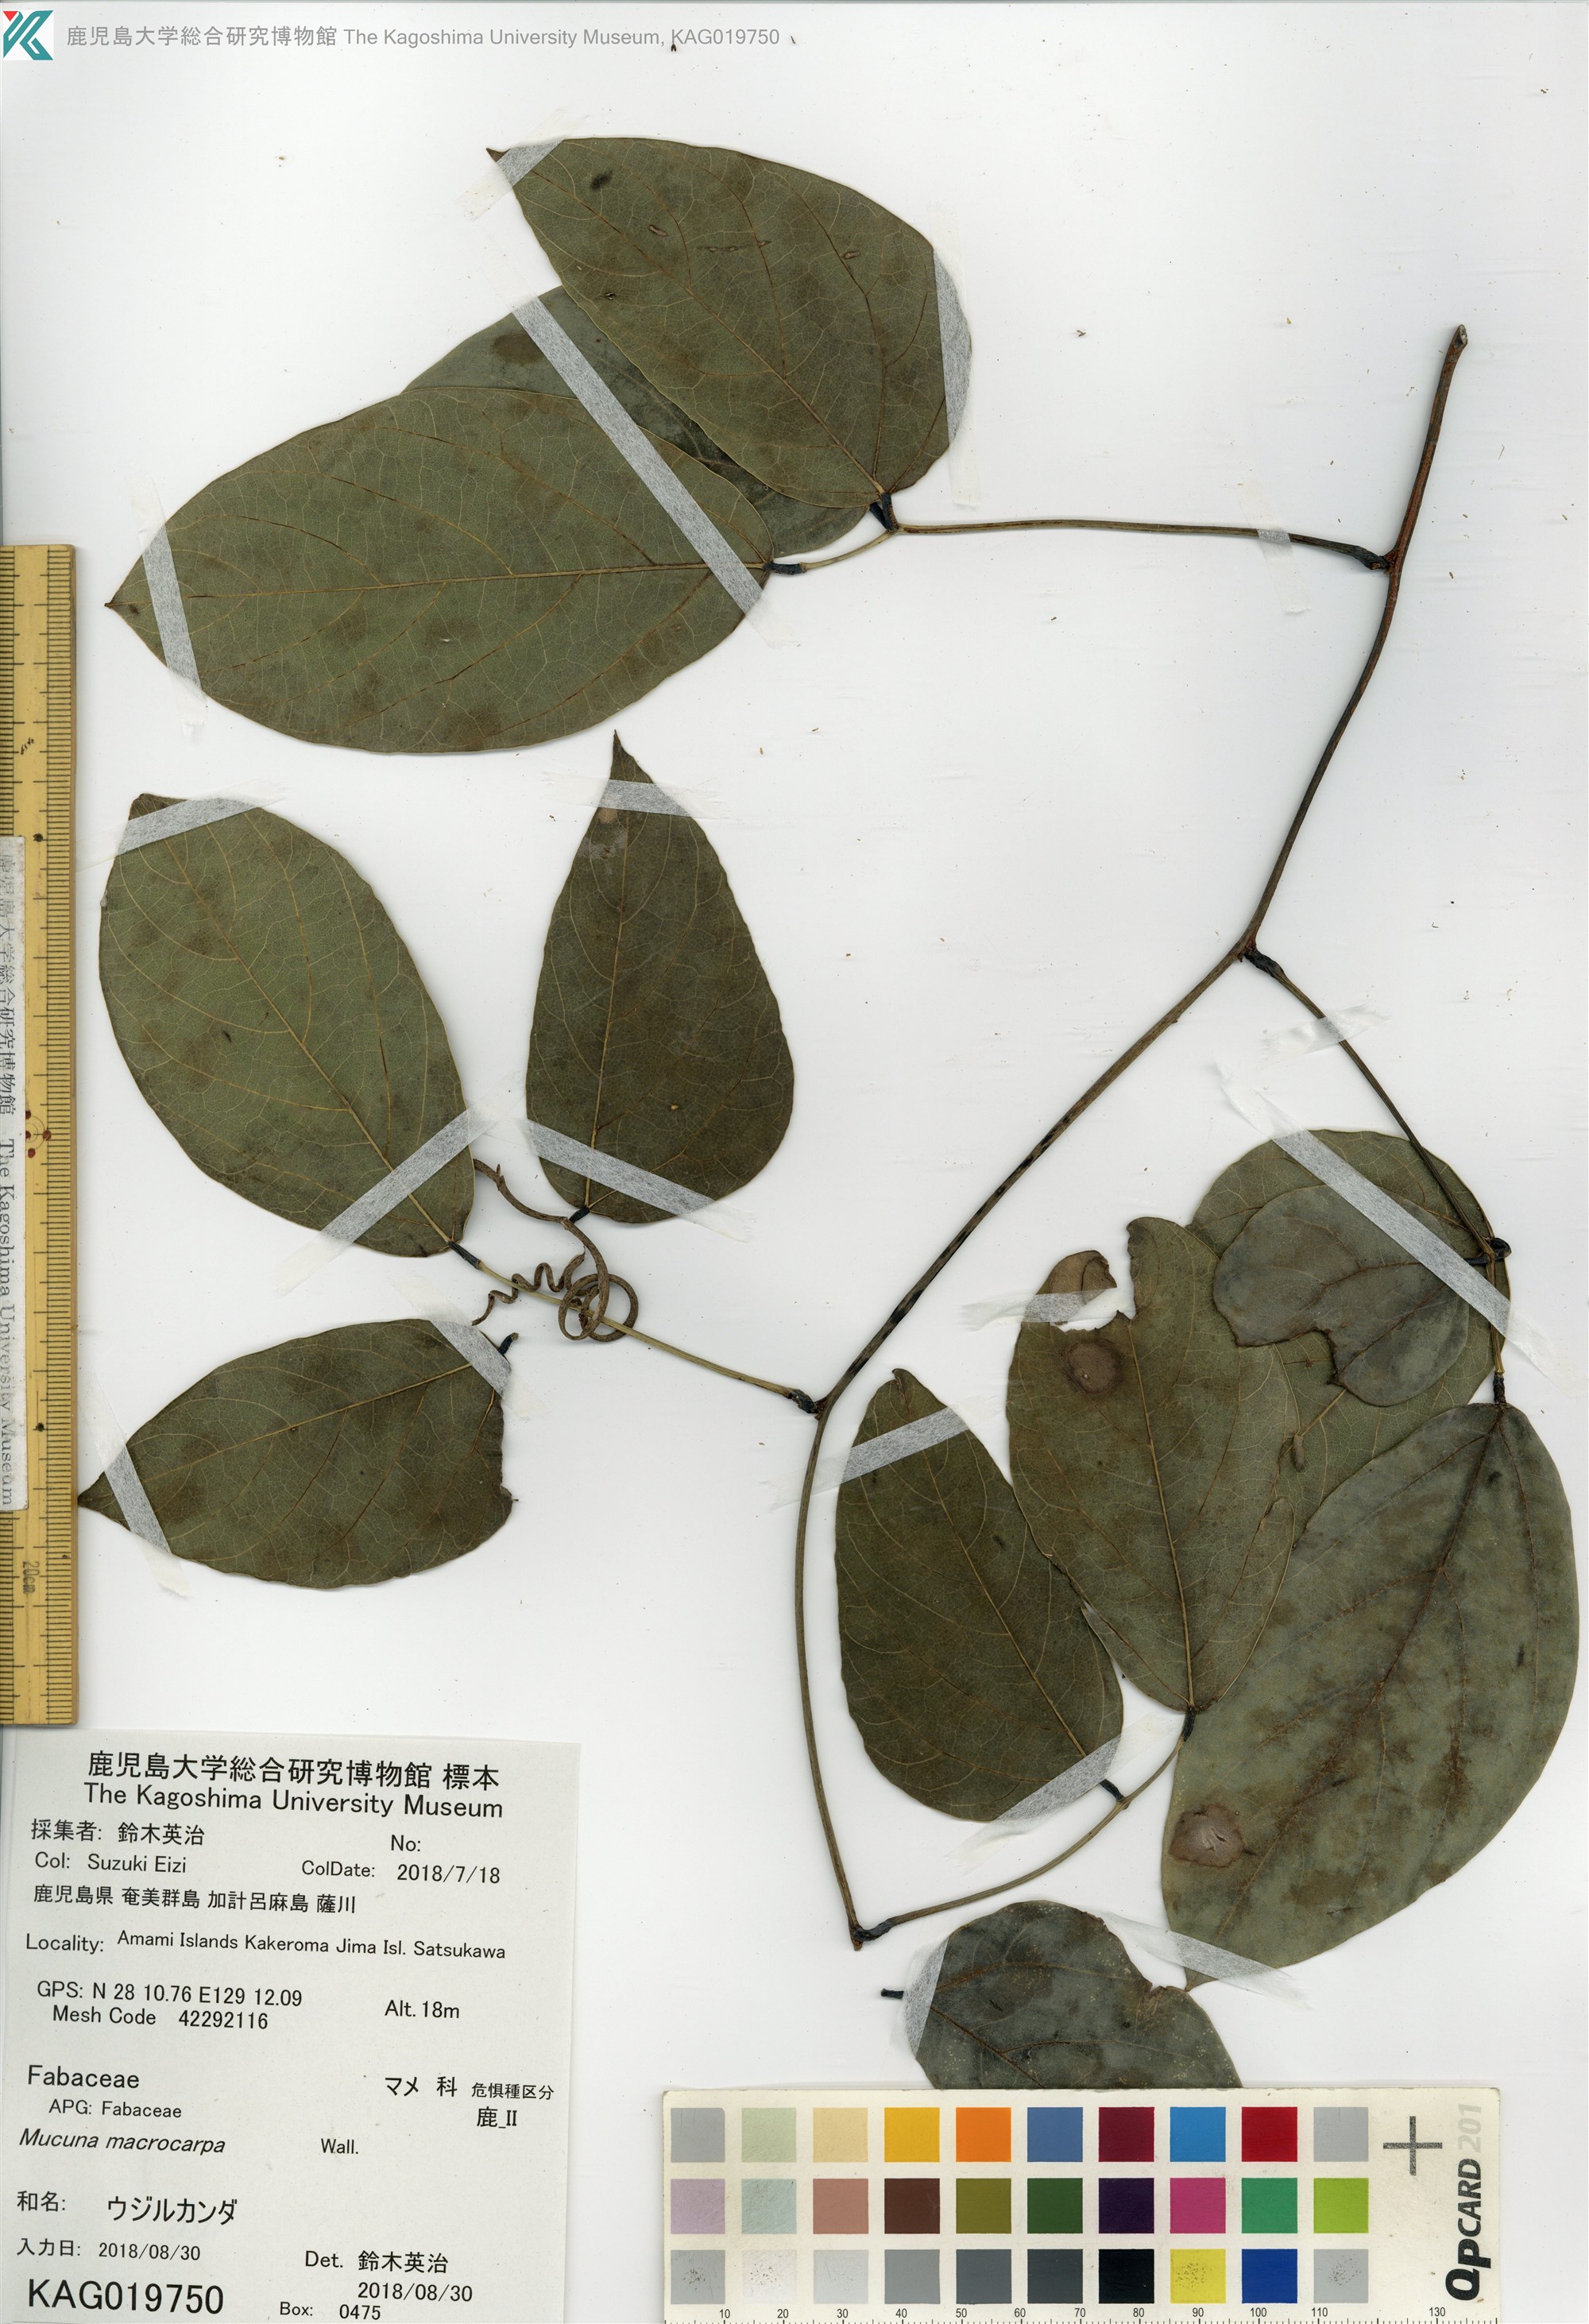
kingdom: Plantae
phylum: Tracheophyta
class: Magnoliopsida
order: Fabales
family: Fabaceae
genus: Mucuna
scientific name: Mucuna macrocarpa
